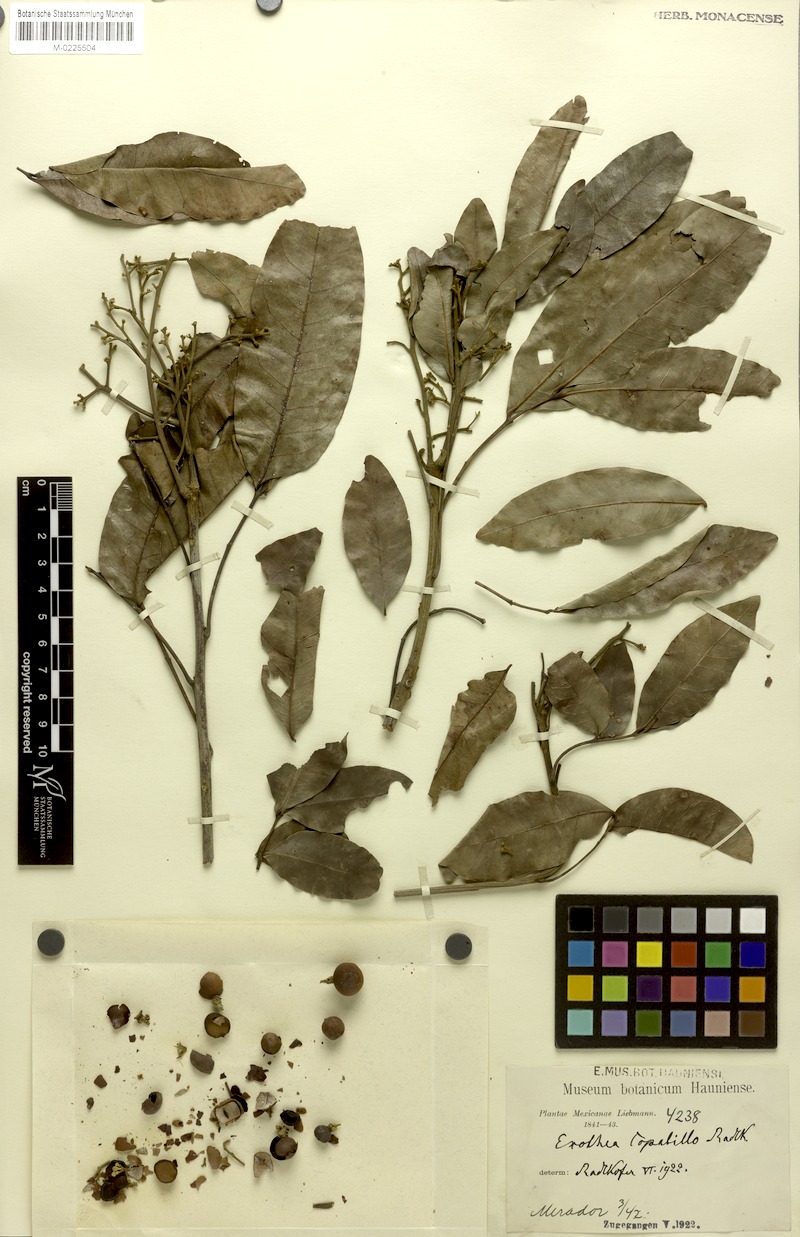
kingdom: Plantae
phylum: Tracheophyta
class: Magnoliopsida
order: Sapindales
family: Sapindaceae
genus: Exothea
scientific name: Exothea copalillo
